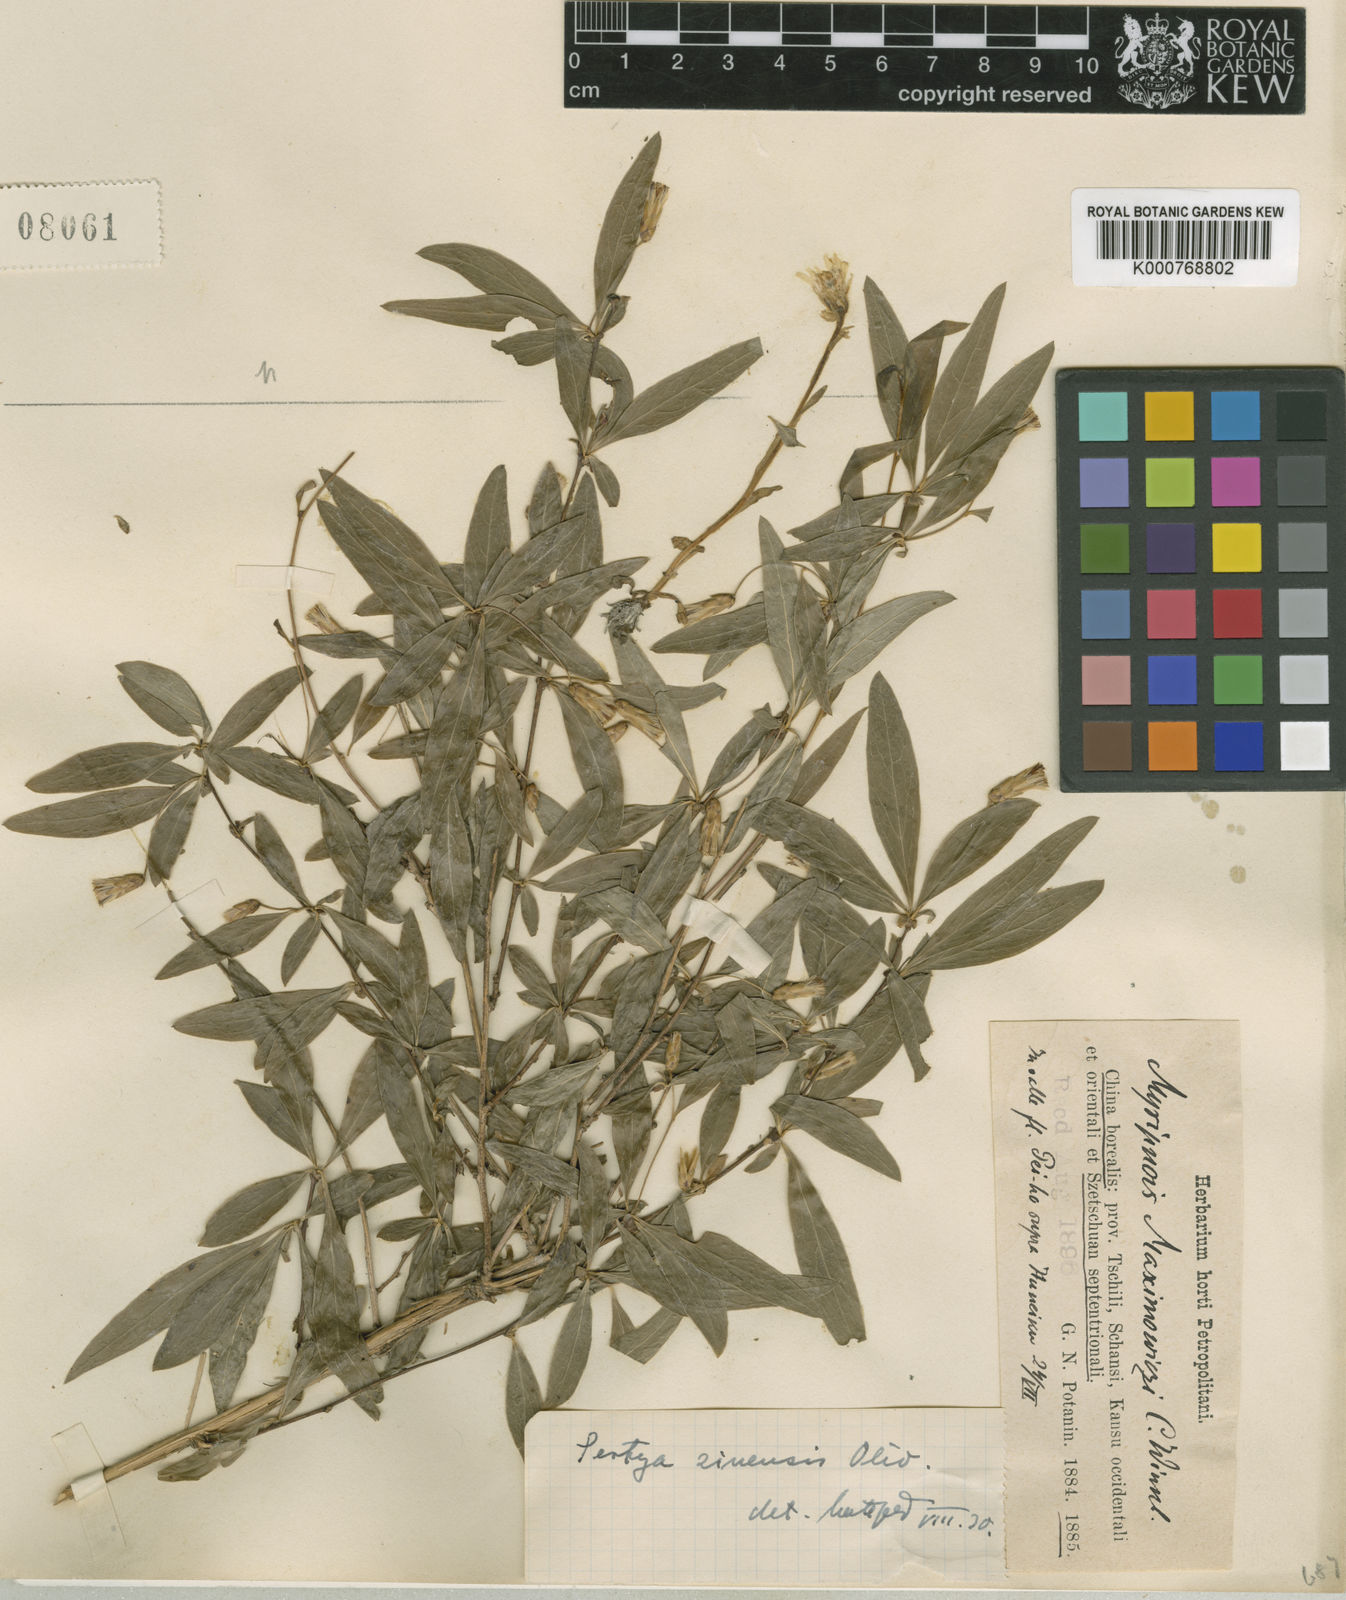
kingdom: Plantae
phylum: Tracheophyta
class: Magnoliopsida
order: Asterales
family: Asteraceae
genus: Pertya
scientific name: Pertya sinensis
